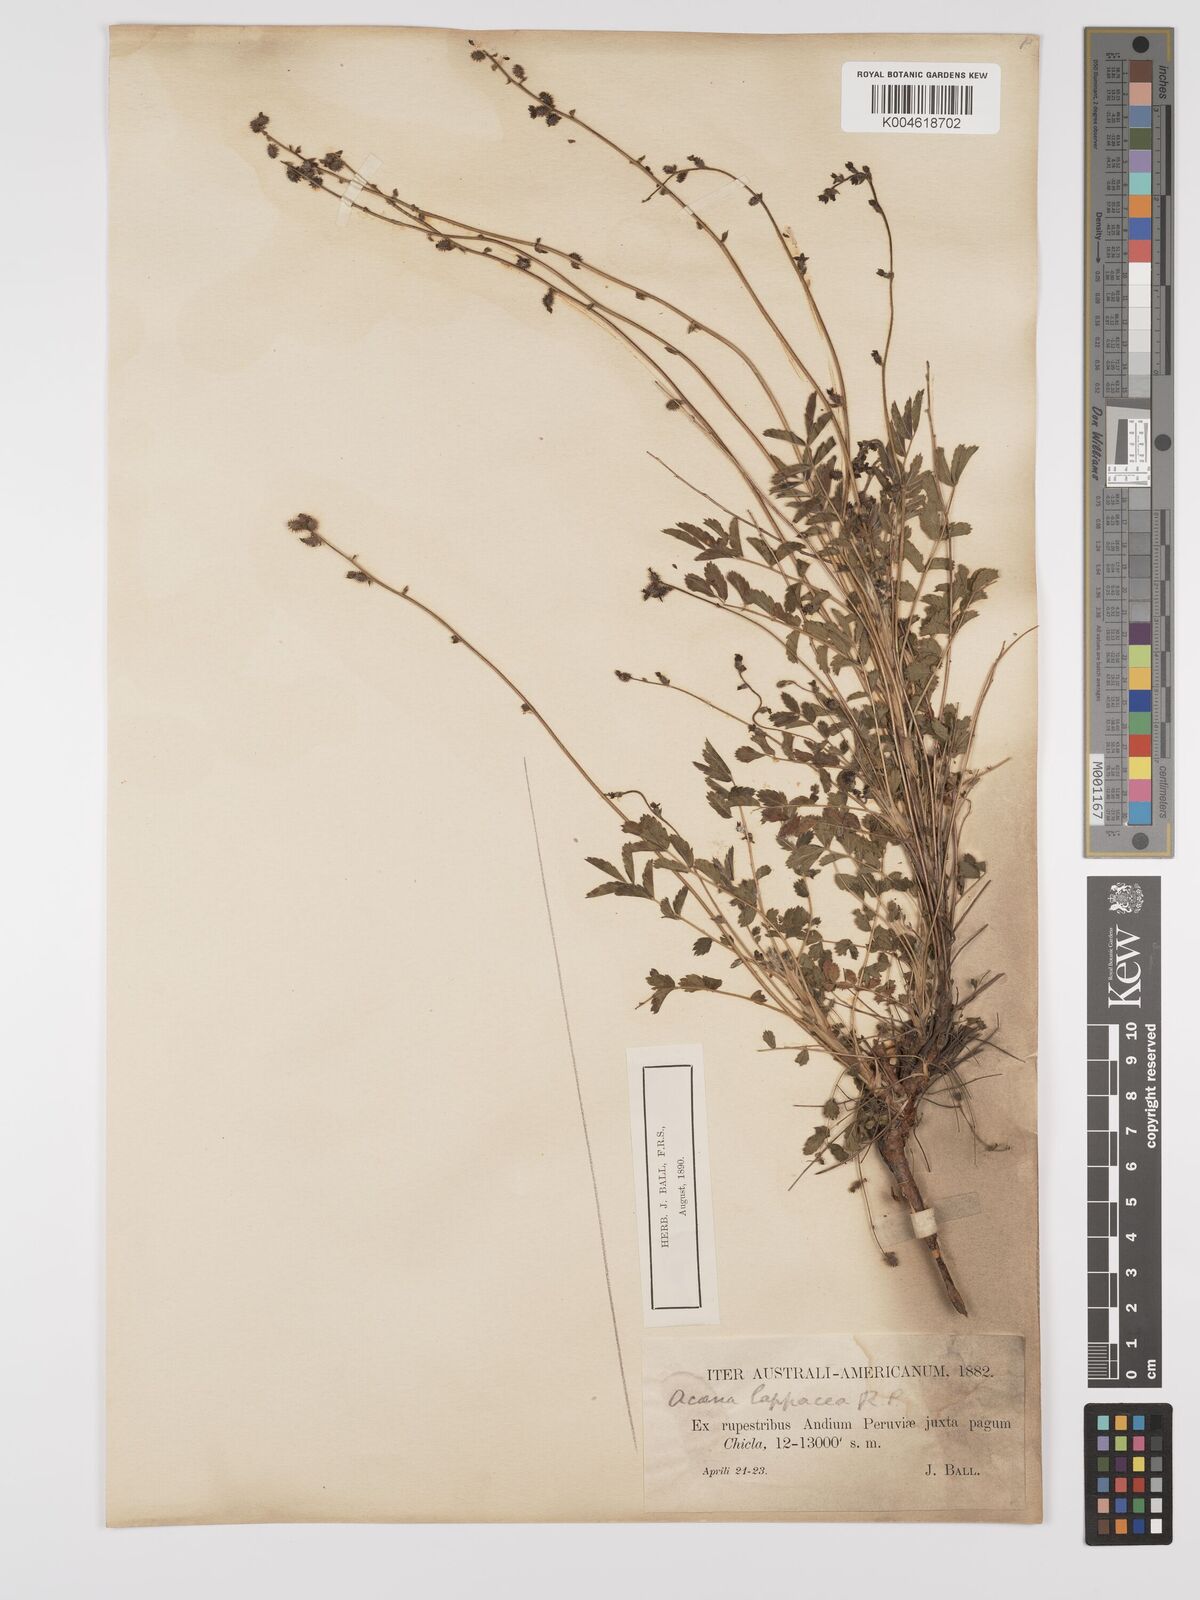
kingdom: Plantae
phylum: Tracheophyta
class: Magnoliopsida
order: Rosales
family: Rosaceae
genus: Acaena
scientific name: Acaena torilicarpa
